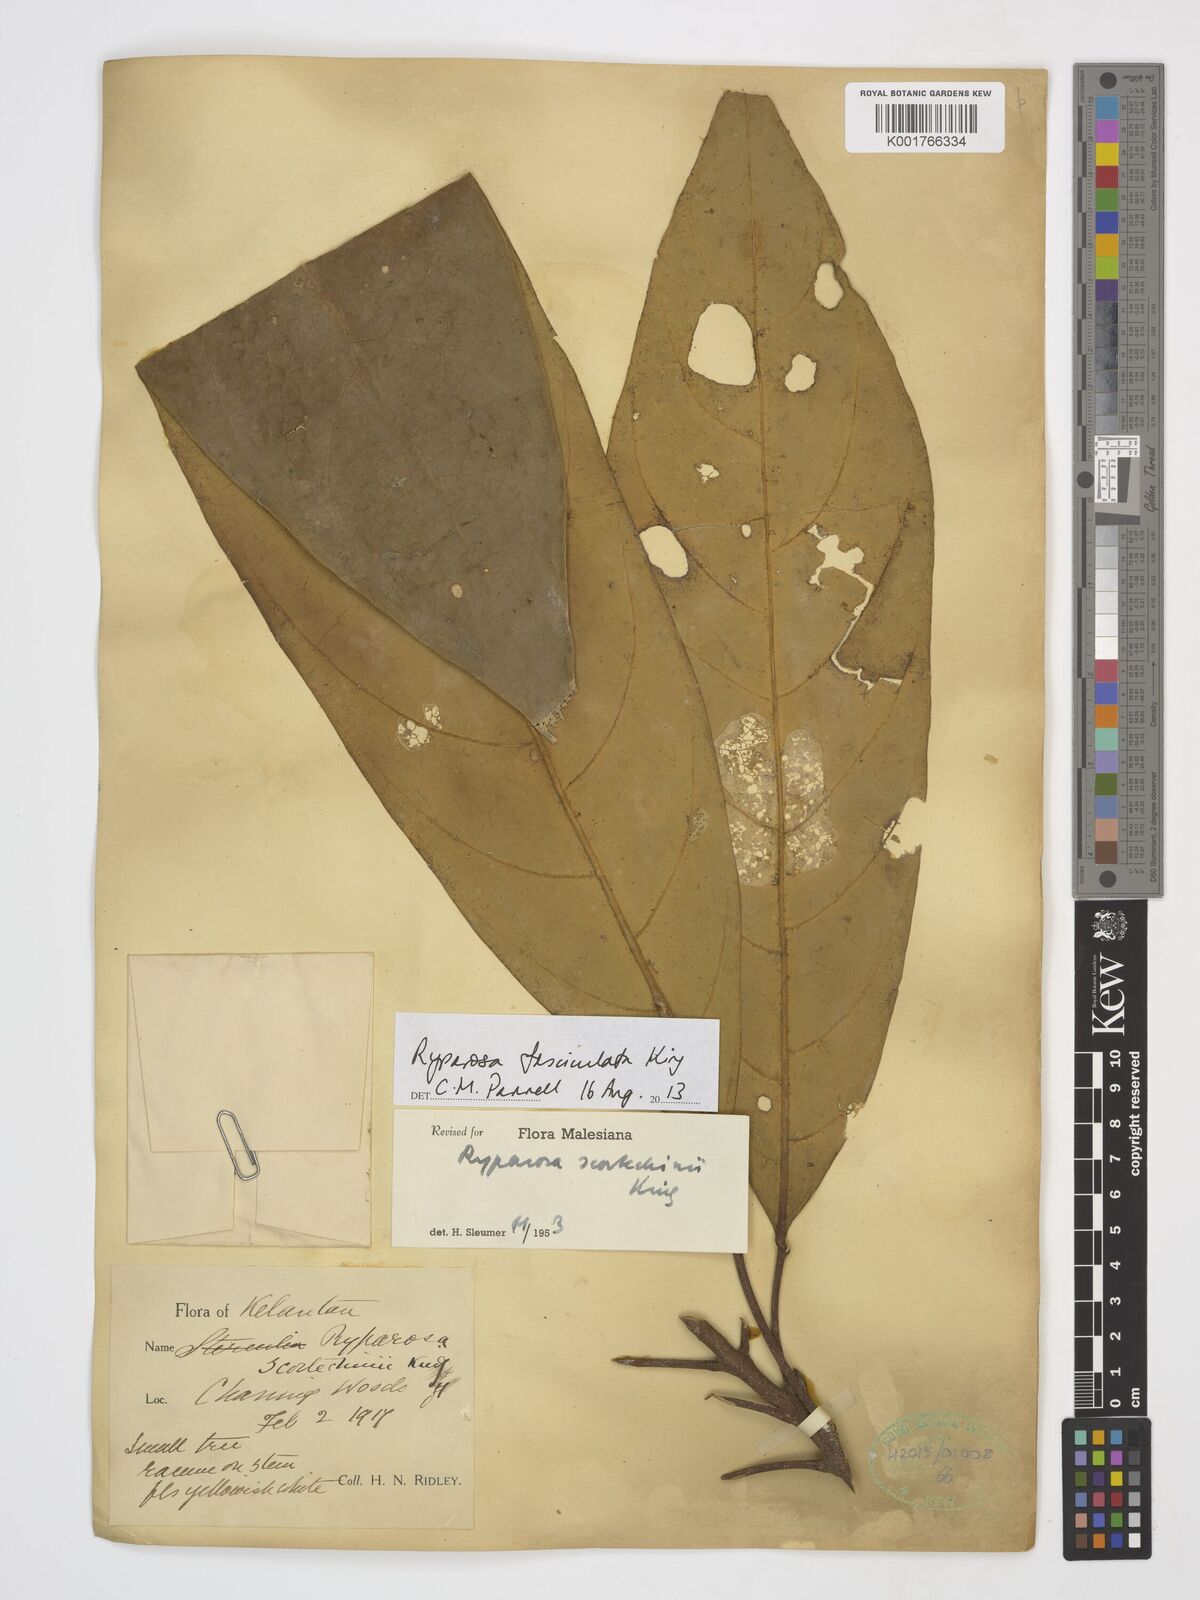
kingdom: Plantae
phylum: Tracheophyta
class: Magnoliopsida
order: Malpighiales
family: Achariaceae
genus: Ryparosa
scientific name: Ryparosa fasciculata
